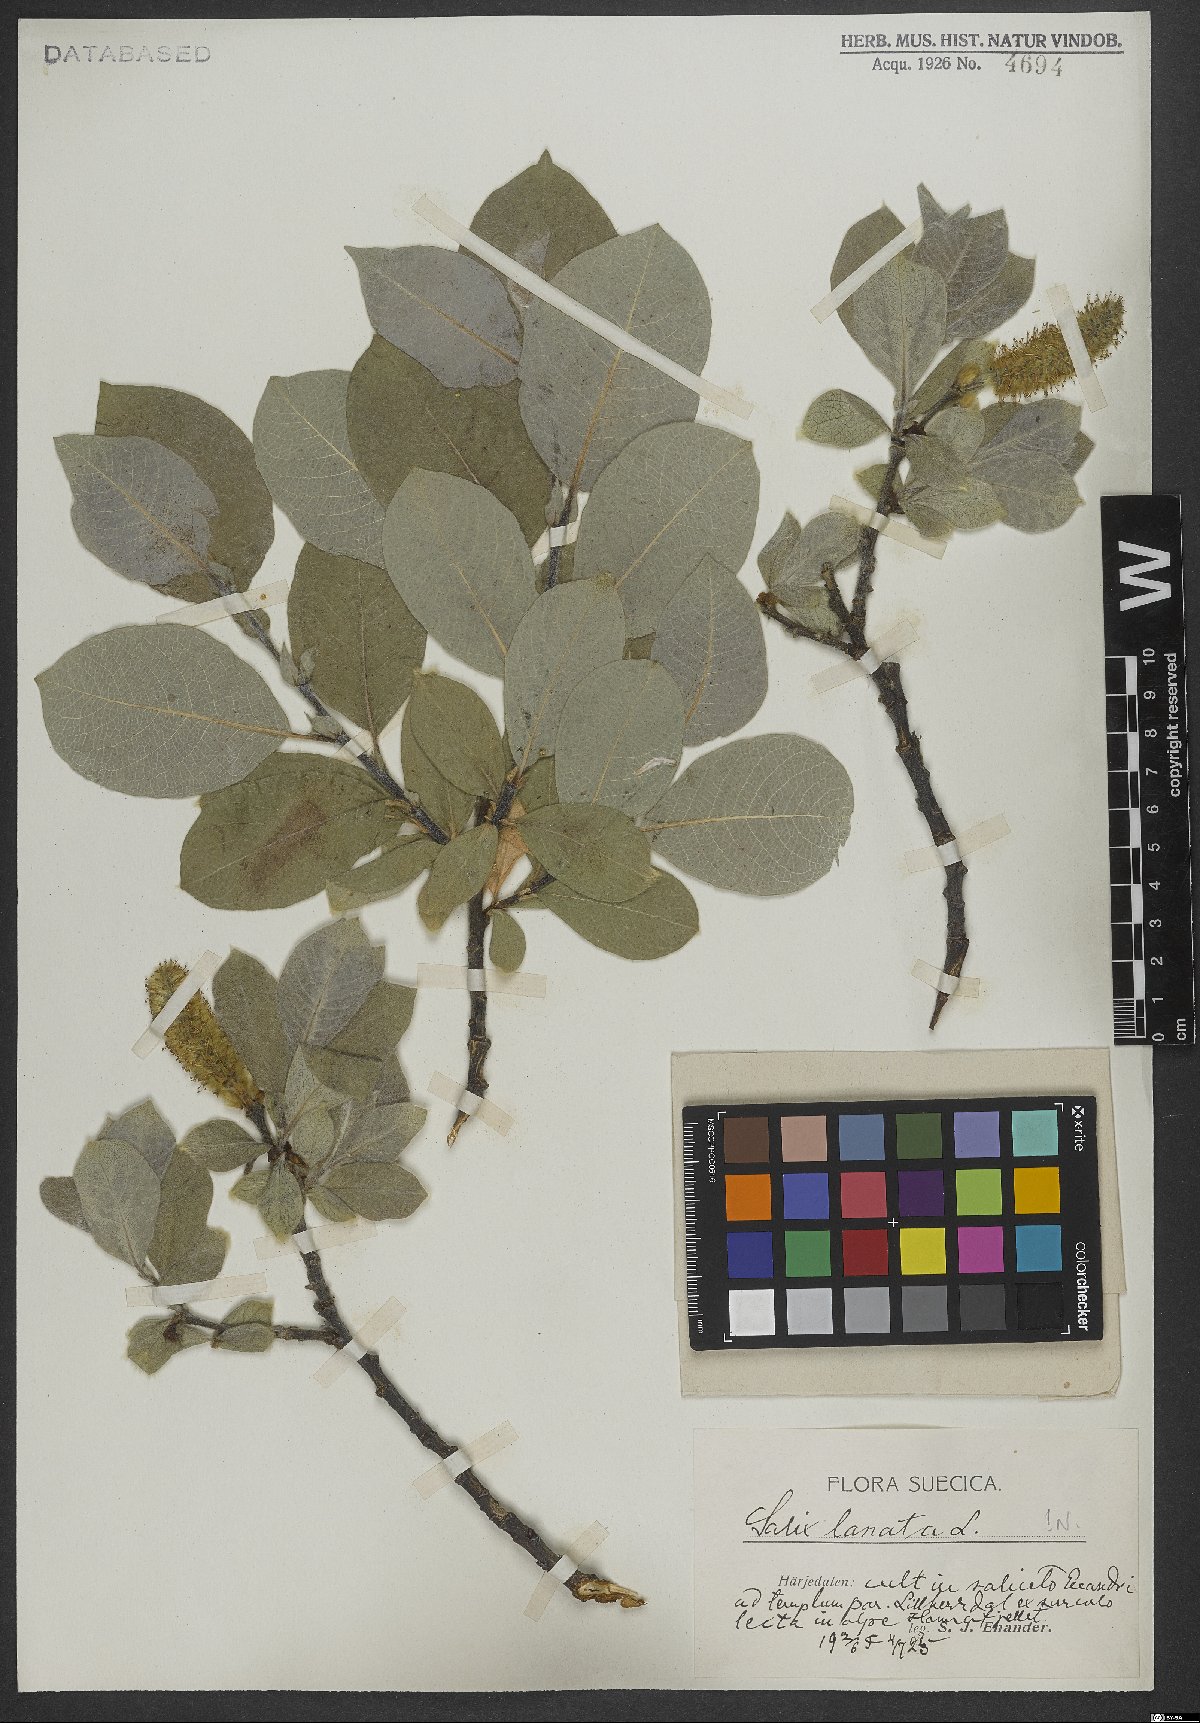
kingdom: Plantae
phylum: Tracheophyta
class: Magnoliopsida
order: Malpighiales
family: Salicaceae
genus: Salix
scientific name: Salix lanata
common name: Woolly willow
